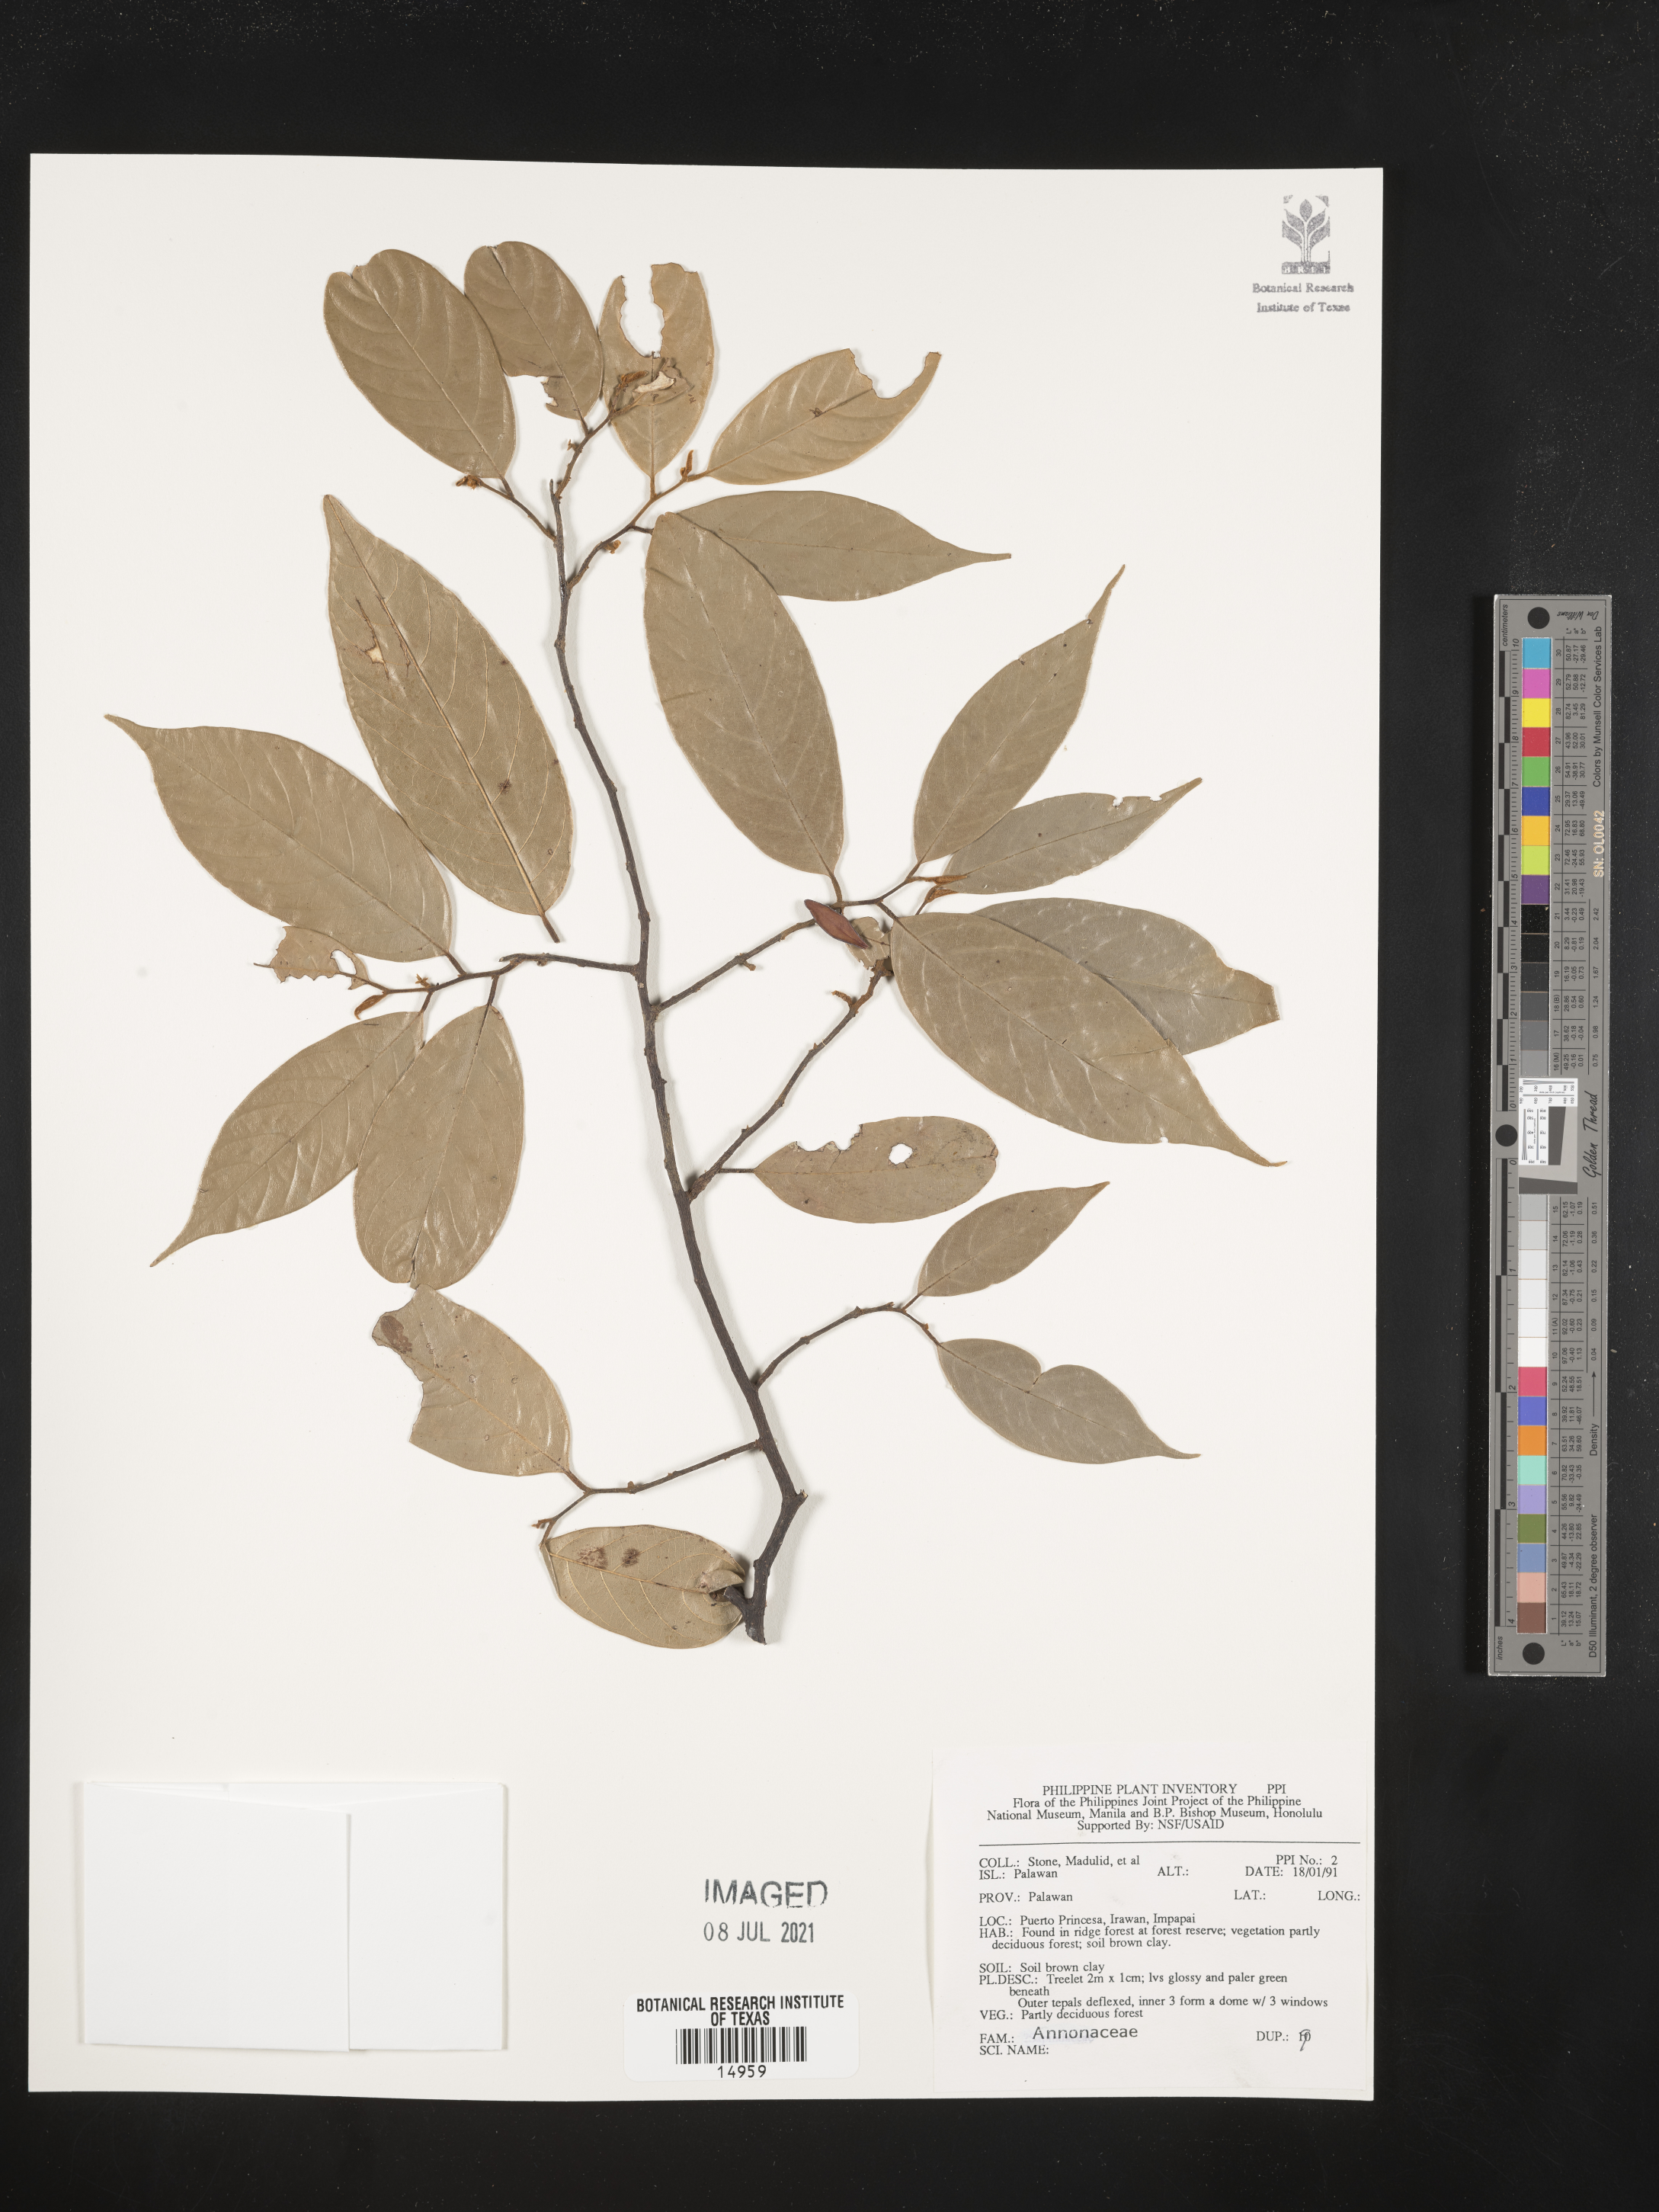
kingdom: Plantae
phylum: Tracheophyta
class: Magnoliopsida
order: Magnoliales
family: Annonaceae
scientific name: Annonaceae
